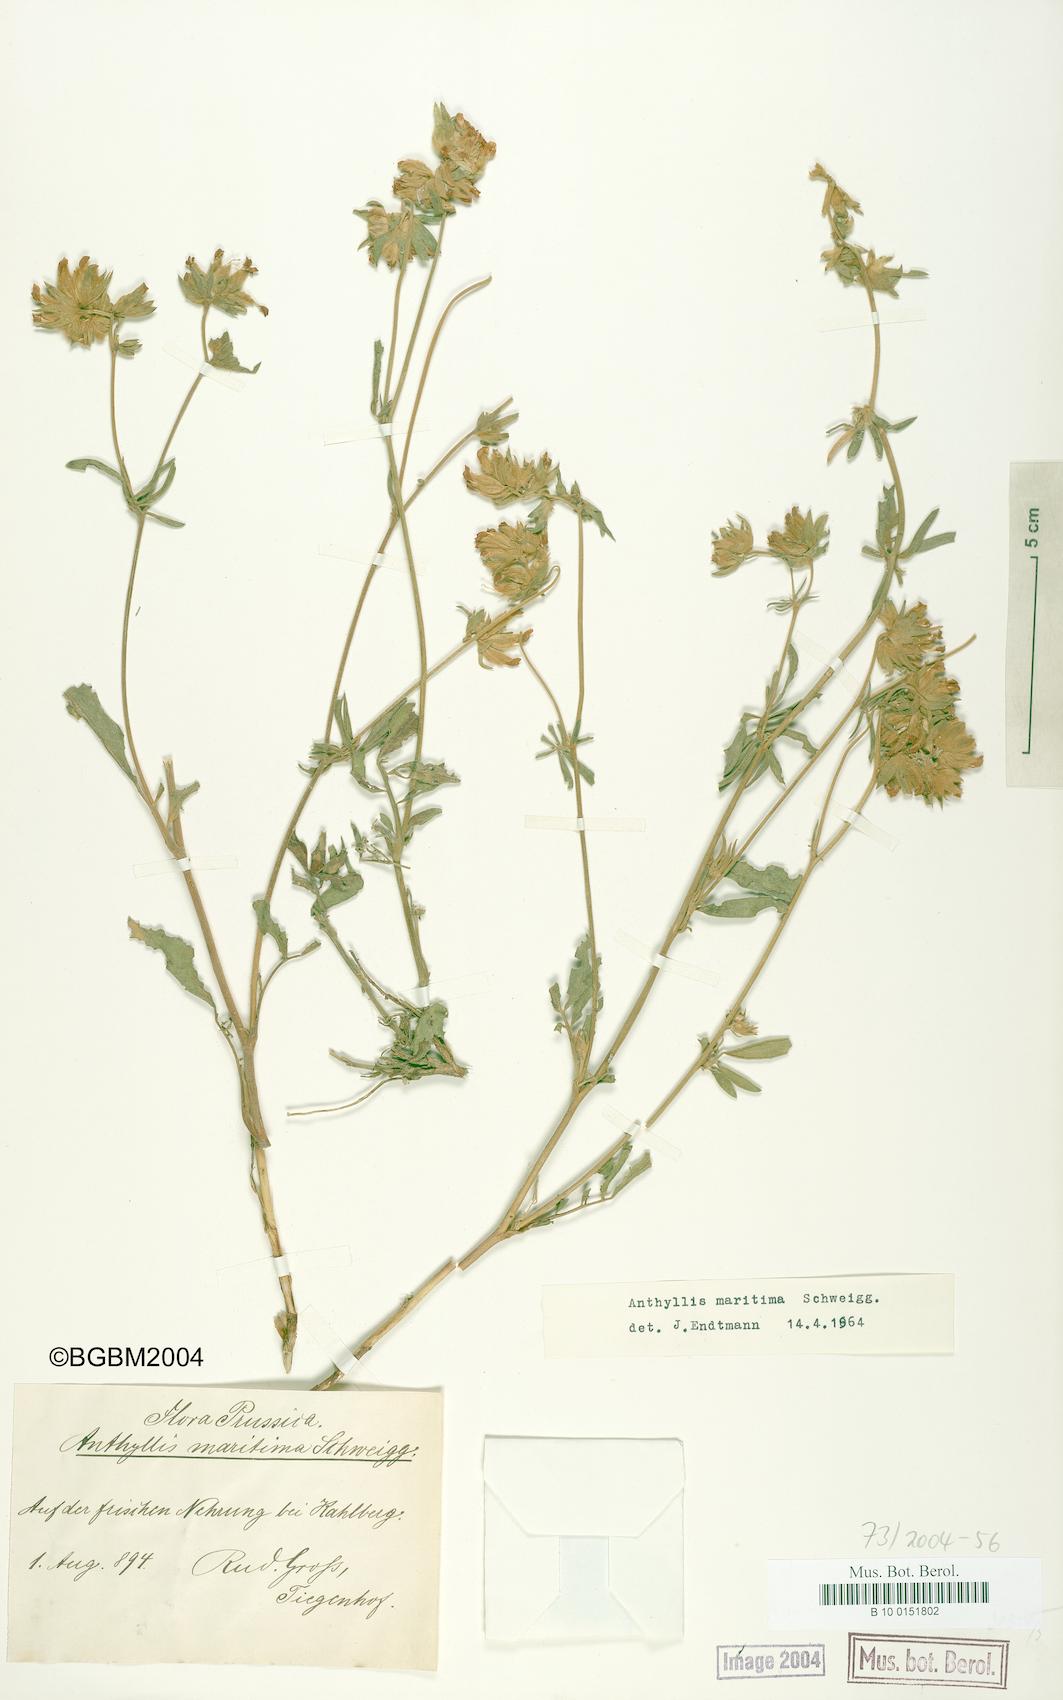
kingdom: Plantae
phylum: Tracheophyta
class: Magnoliopsida
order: Fabales
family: Fabaceae
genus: Anthyllis
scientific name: Anthyllis vulneraria
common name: Kidney vetch
